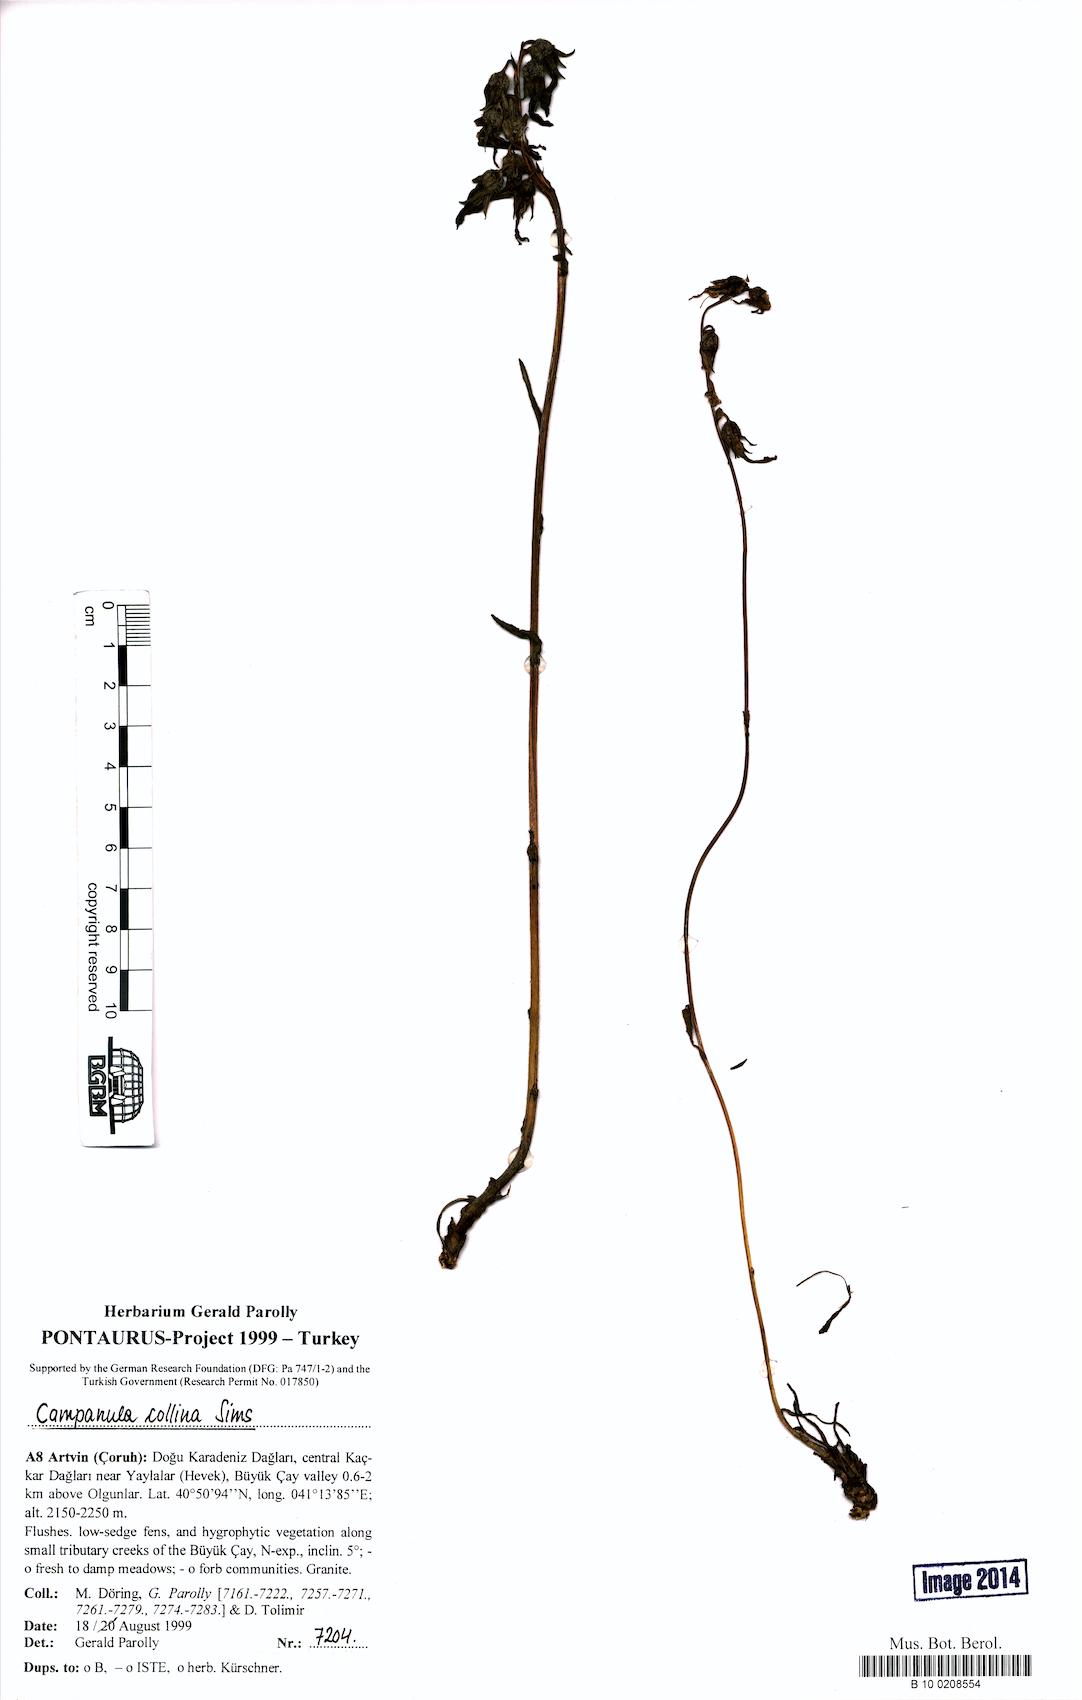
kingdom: Plantae
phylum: Tracheophyta
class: Magnoliopsida
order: Asterales
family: Campanulaceae
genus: Campanula
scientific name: Campanula collina
